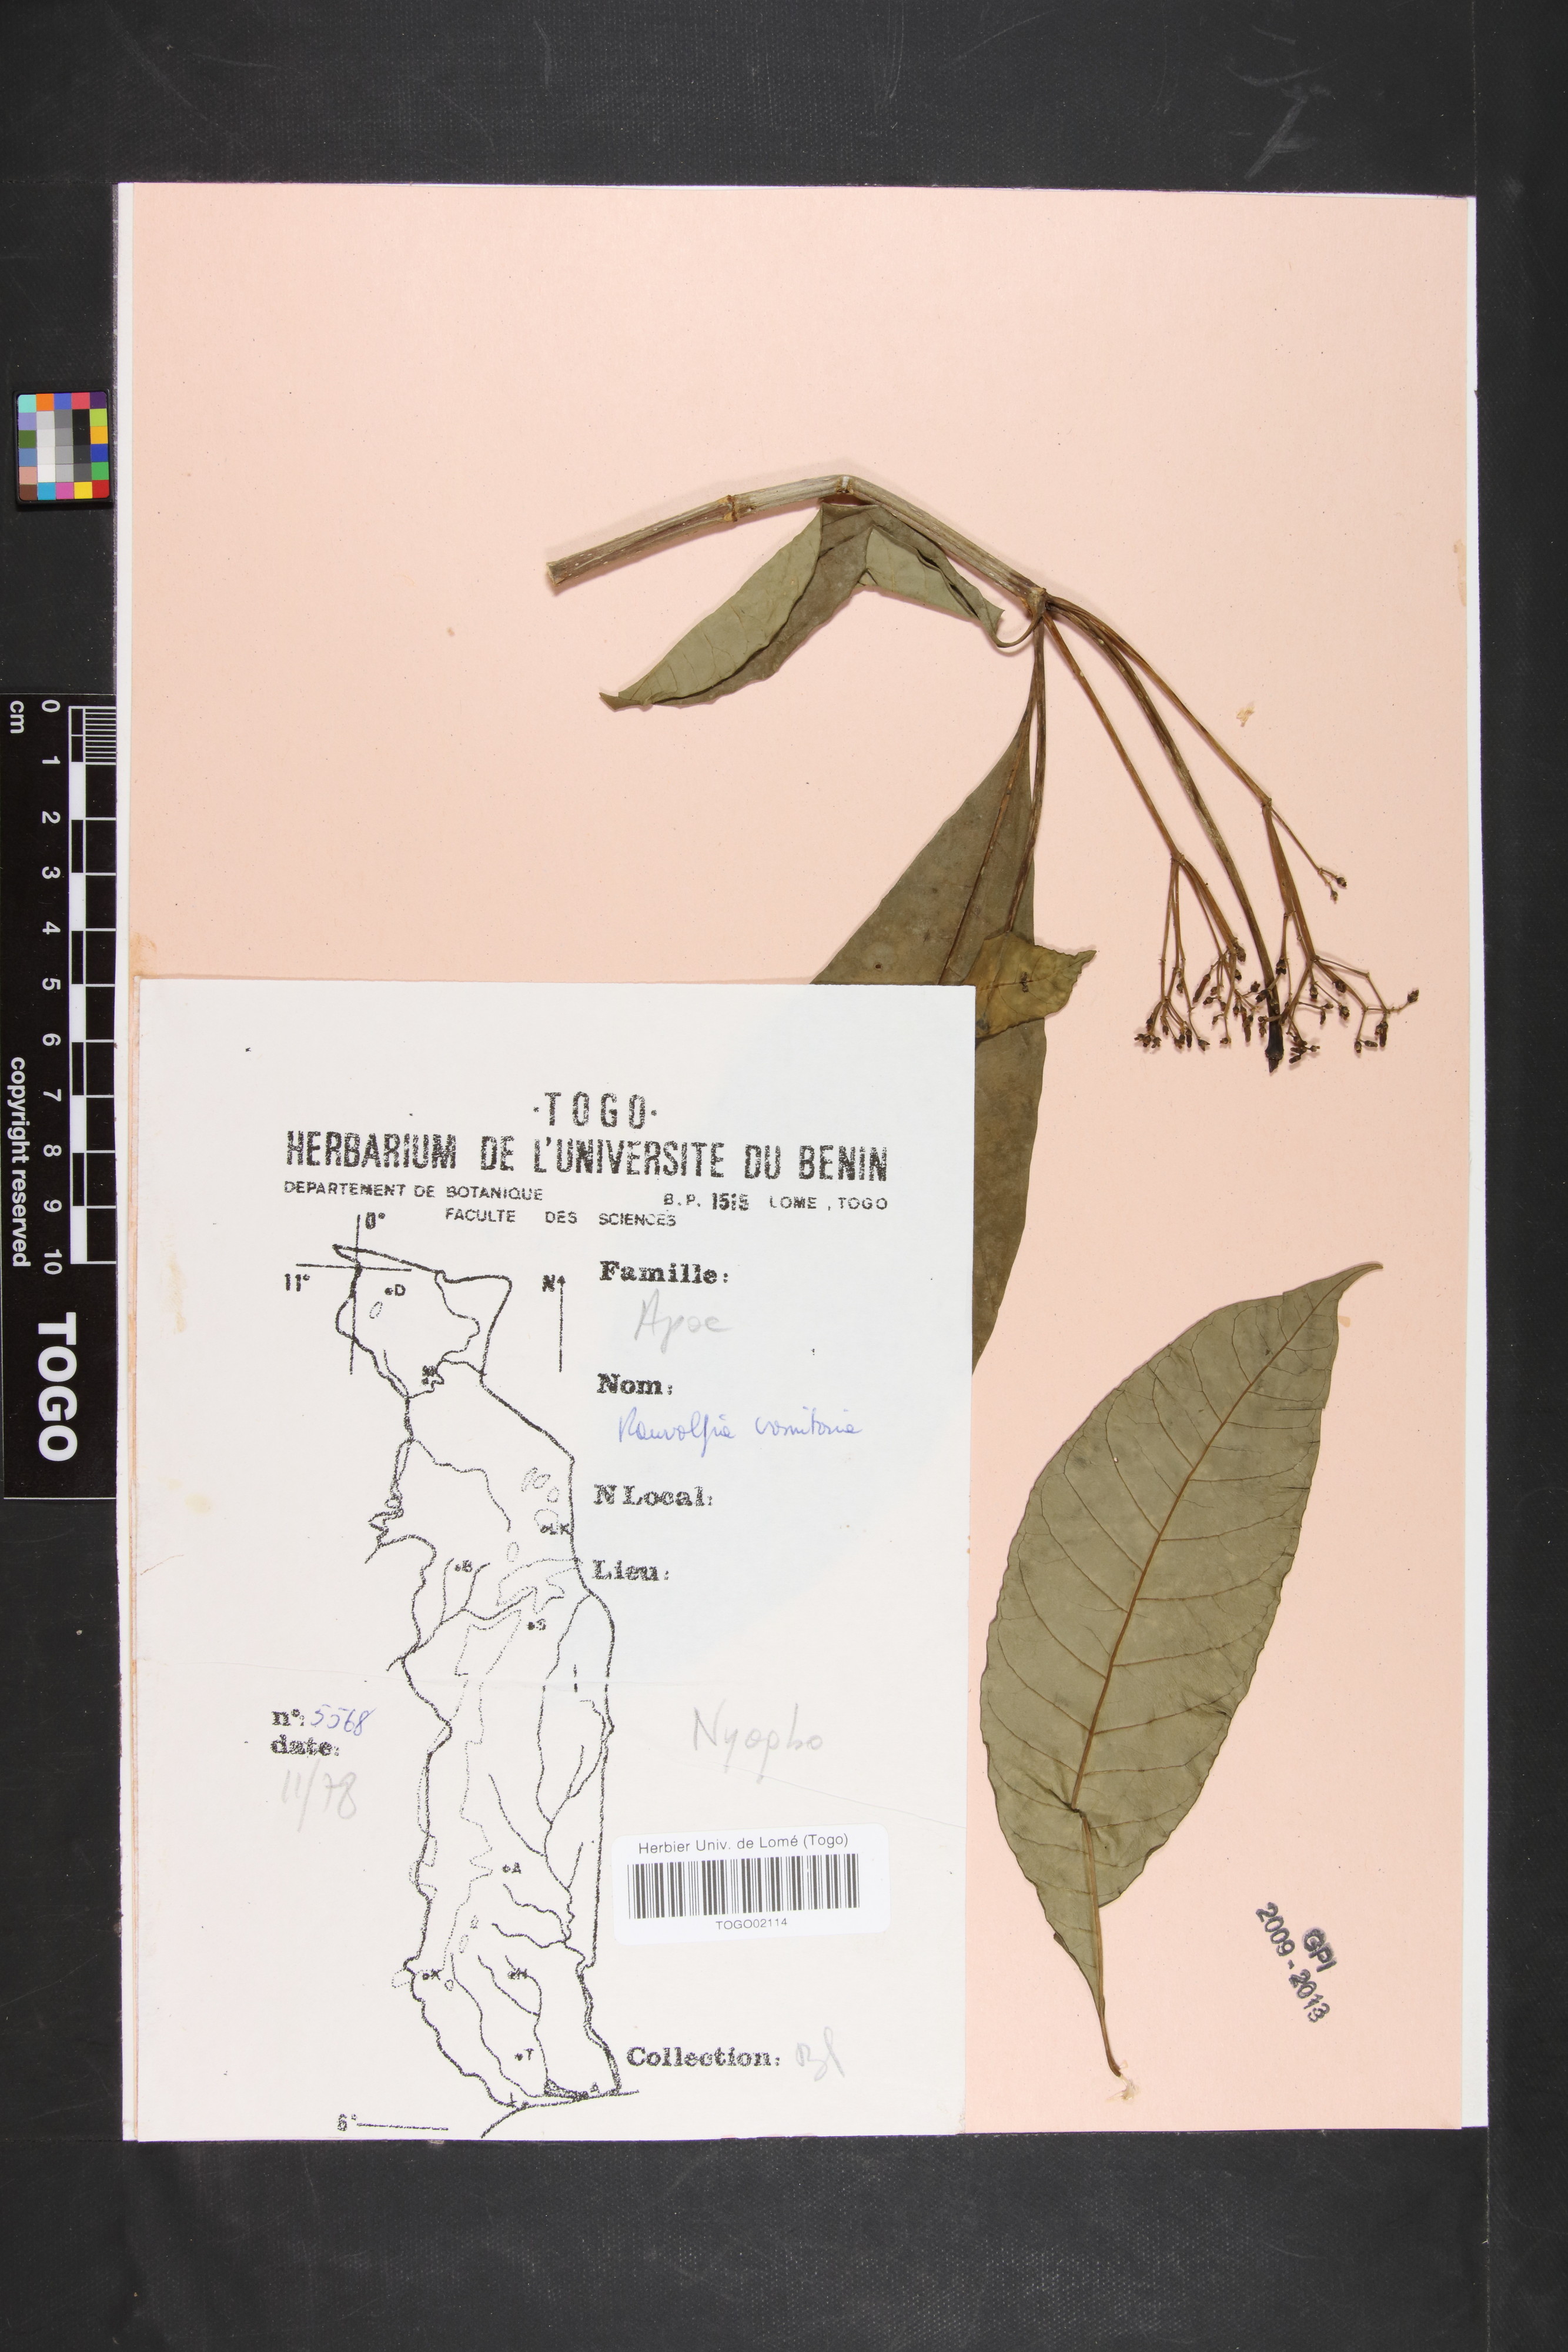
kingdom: Plantae
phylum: Tracheophyta
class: Magnoliopsida
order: Gentianales
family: Apocynaceae
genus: Rauvolfia
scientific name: Rauvolfia vomitoria
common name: Poison devil's-pepper
